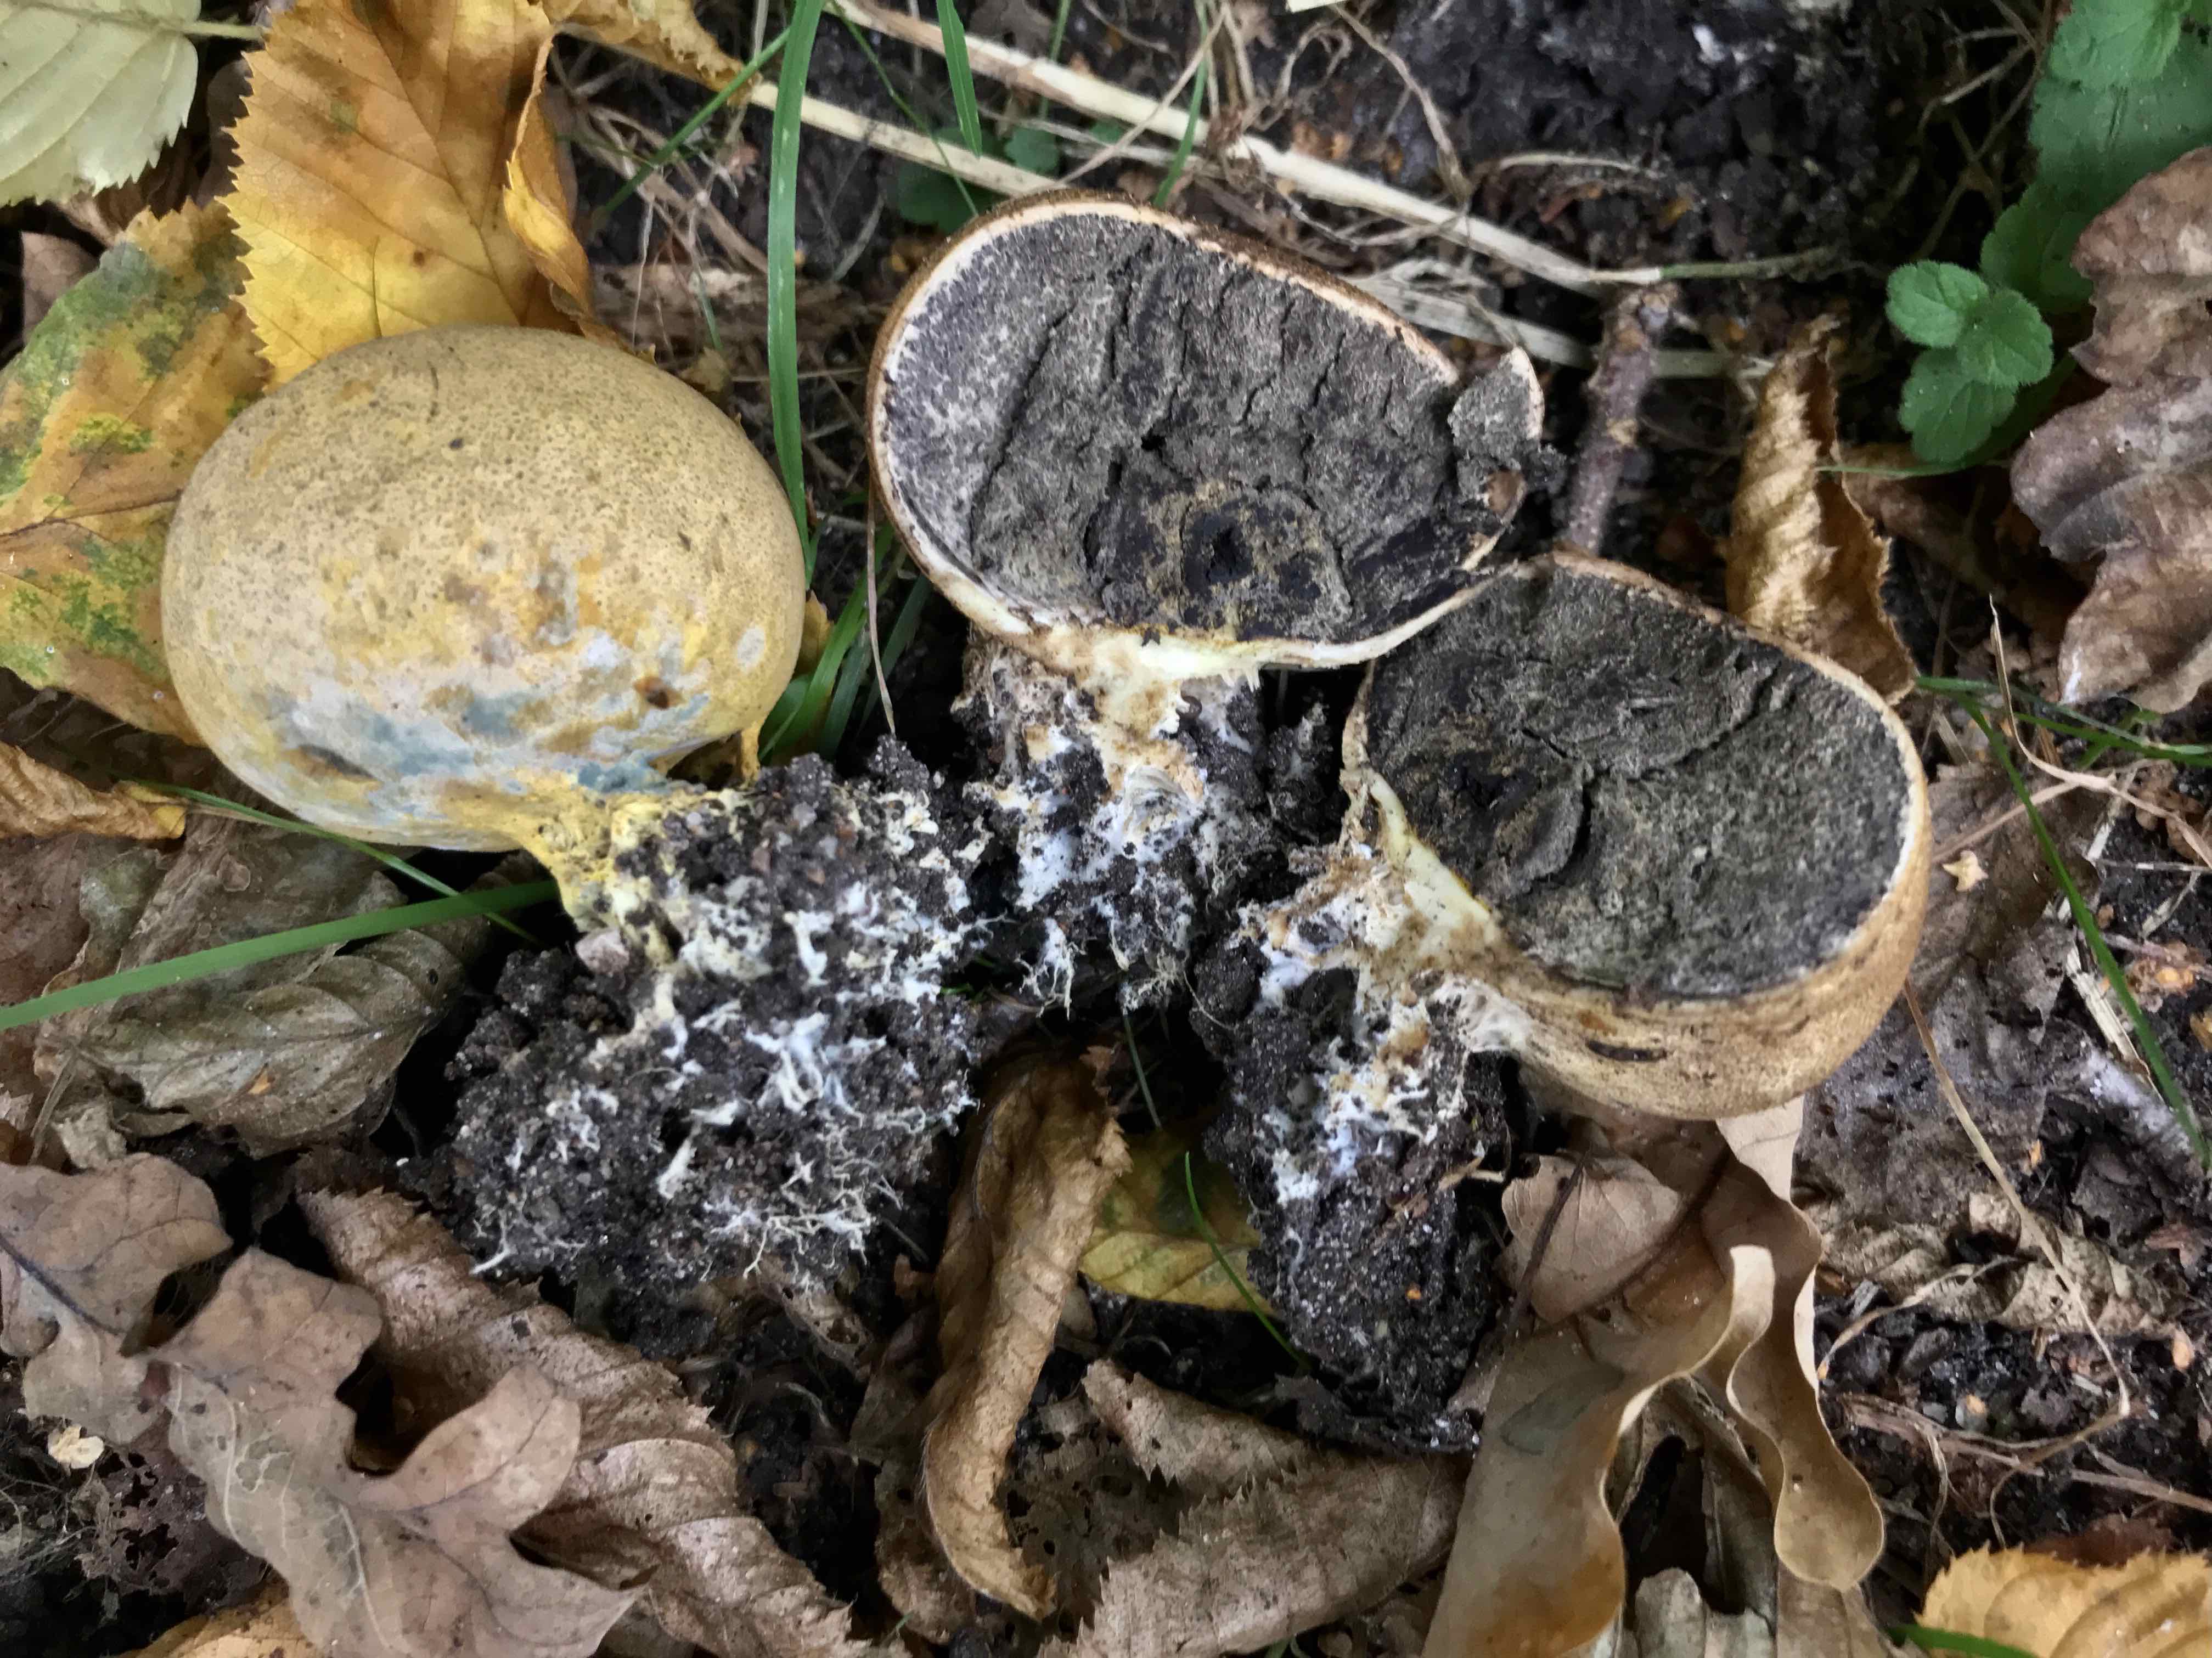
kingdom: Fungi
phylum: Basidiomycota
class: Agaricomycetes
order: Boletales
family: Sclerodermataceae
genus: Scleroderma
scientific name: Scleroderma verrucosum
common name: stilket bruskbold
